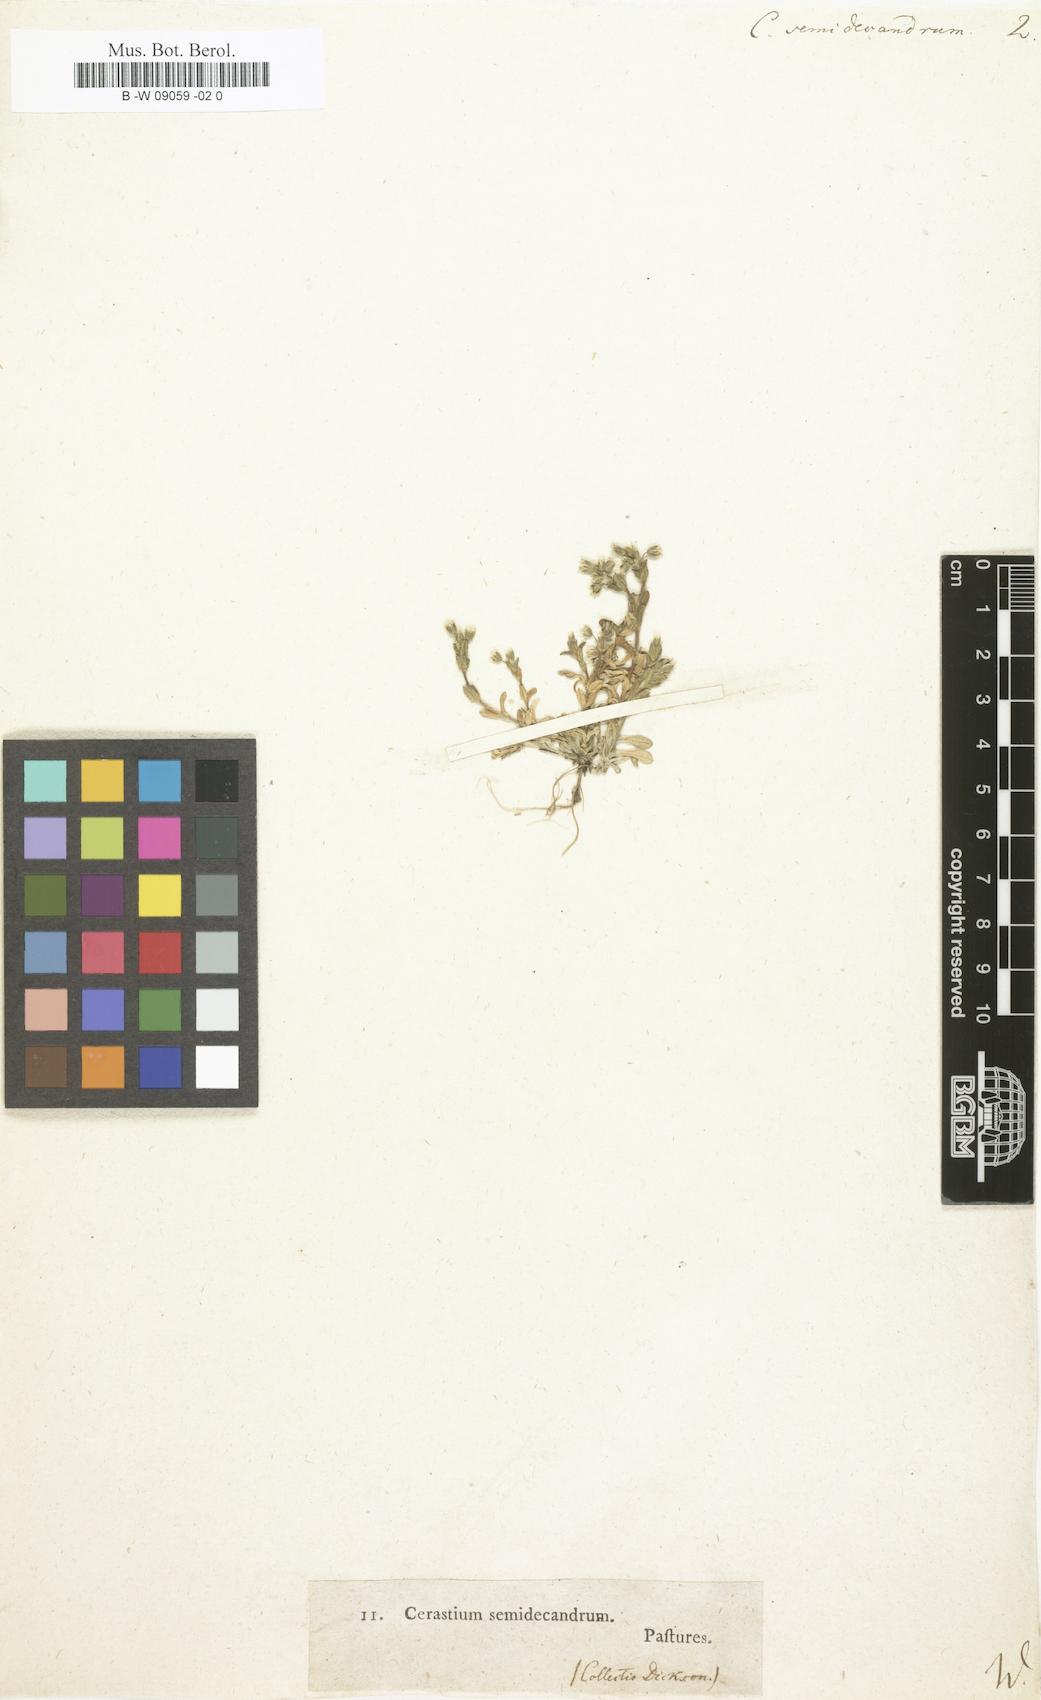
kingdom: Plantae
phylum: Tracheophyta
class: Magnoliopsida
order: Caryophyllales
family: Caryophyllaceae
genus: Cerastium
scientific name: Cerastium semidecandrum
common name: Little mouse-ear
